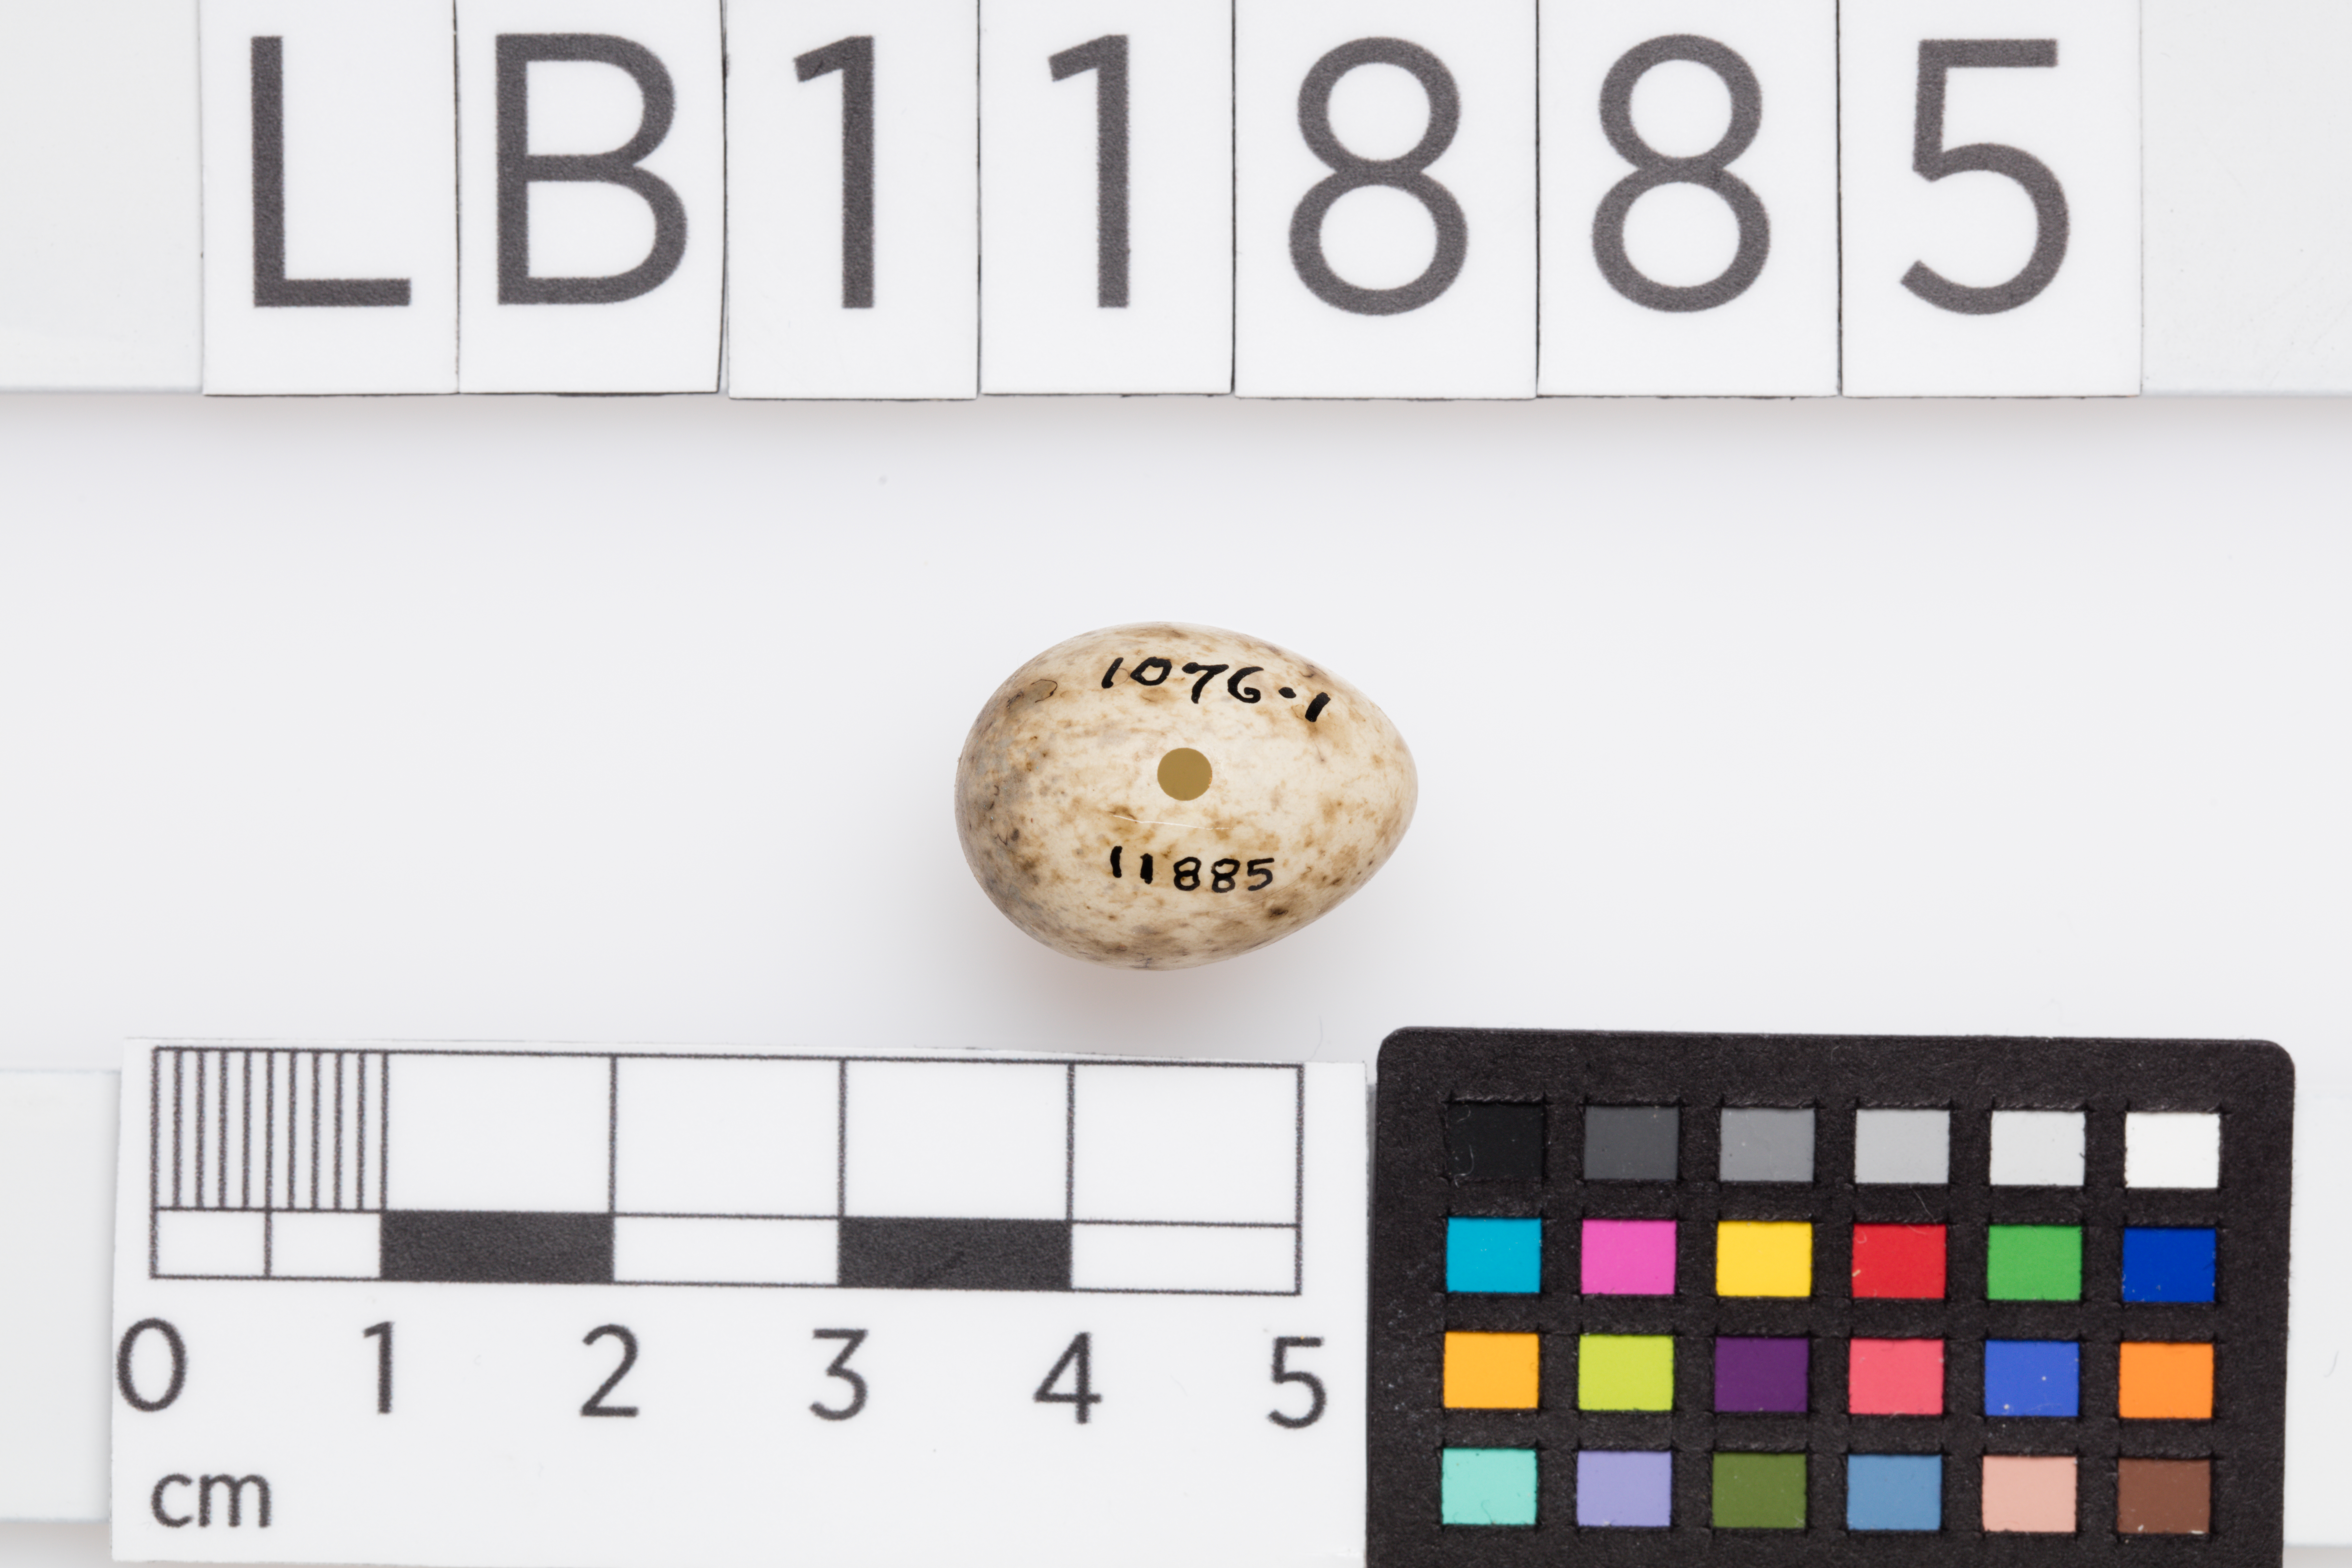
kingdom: Animalia
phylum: Chordata
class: Aves
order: Passeriformes
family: Sylviidae
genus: Sylvia
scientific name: Sylvia borin
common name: Garden warbler
